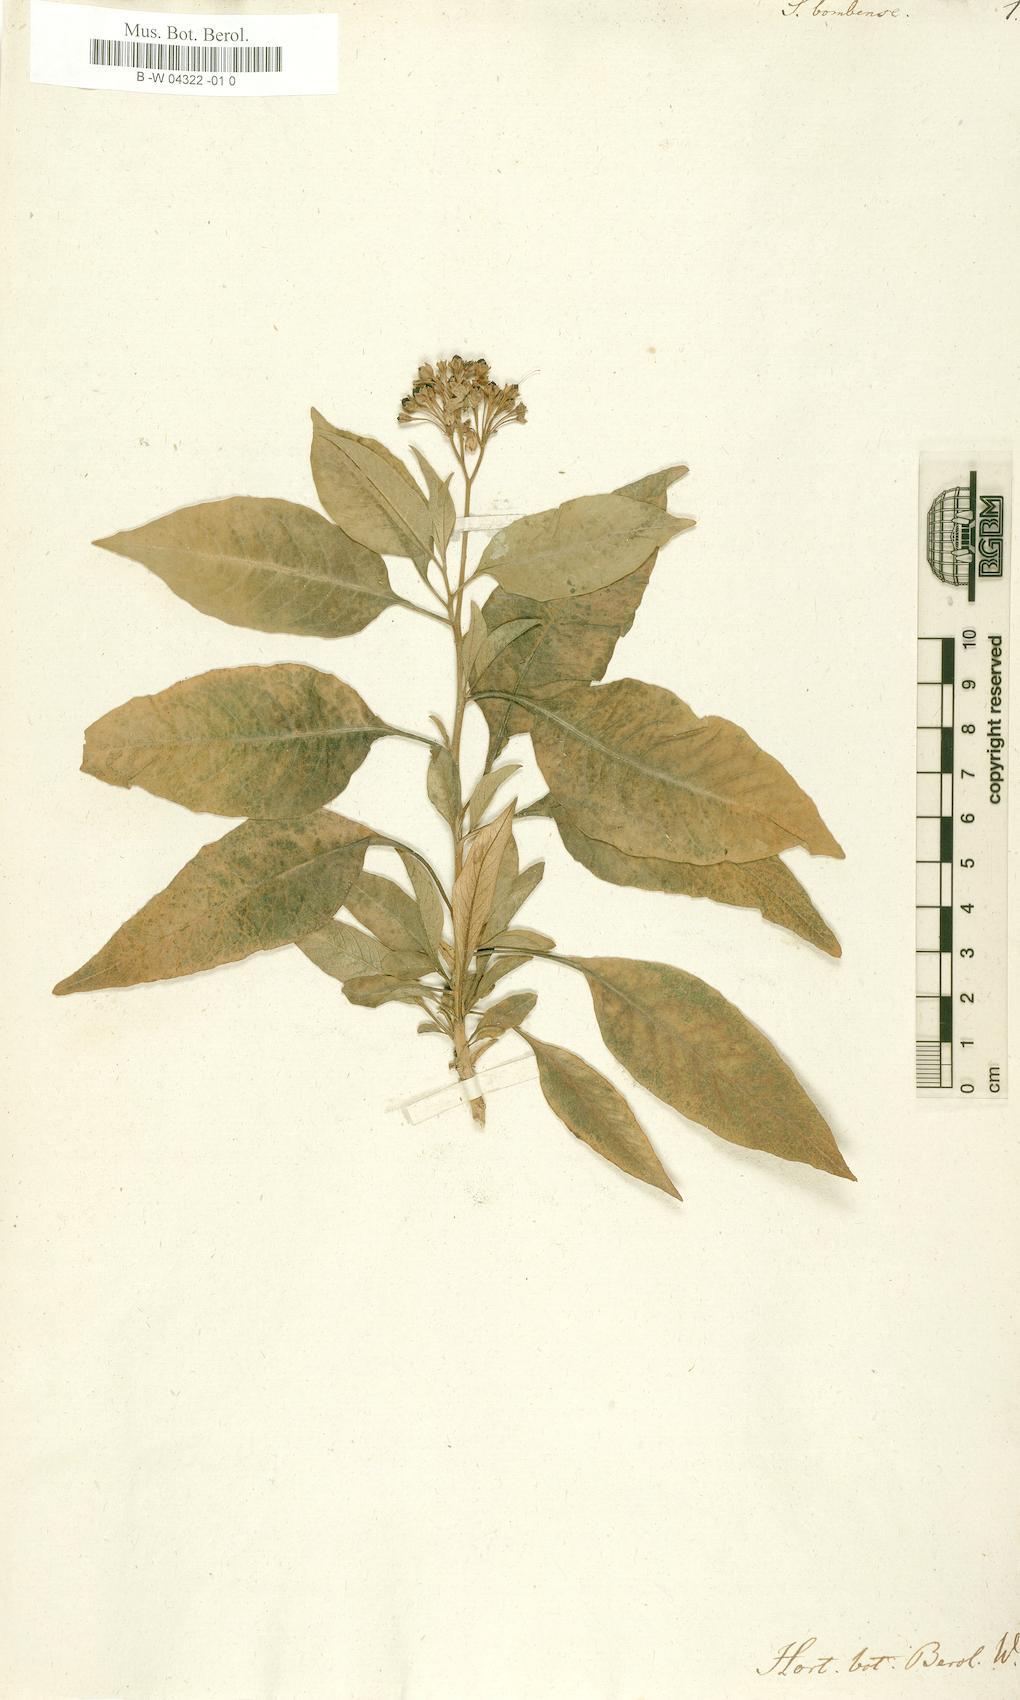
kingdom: Plantae
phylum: Tracheophyta
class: Magnoliopsida
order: Solanales
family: Solanaceae
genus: Solanum
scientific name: Solanum
